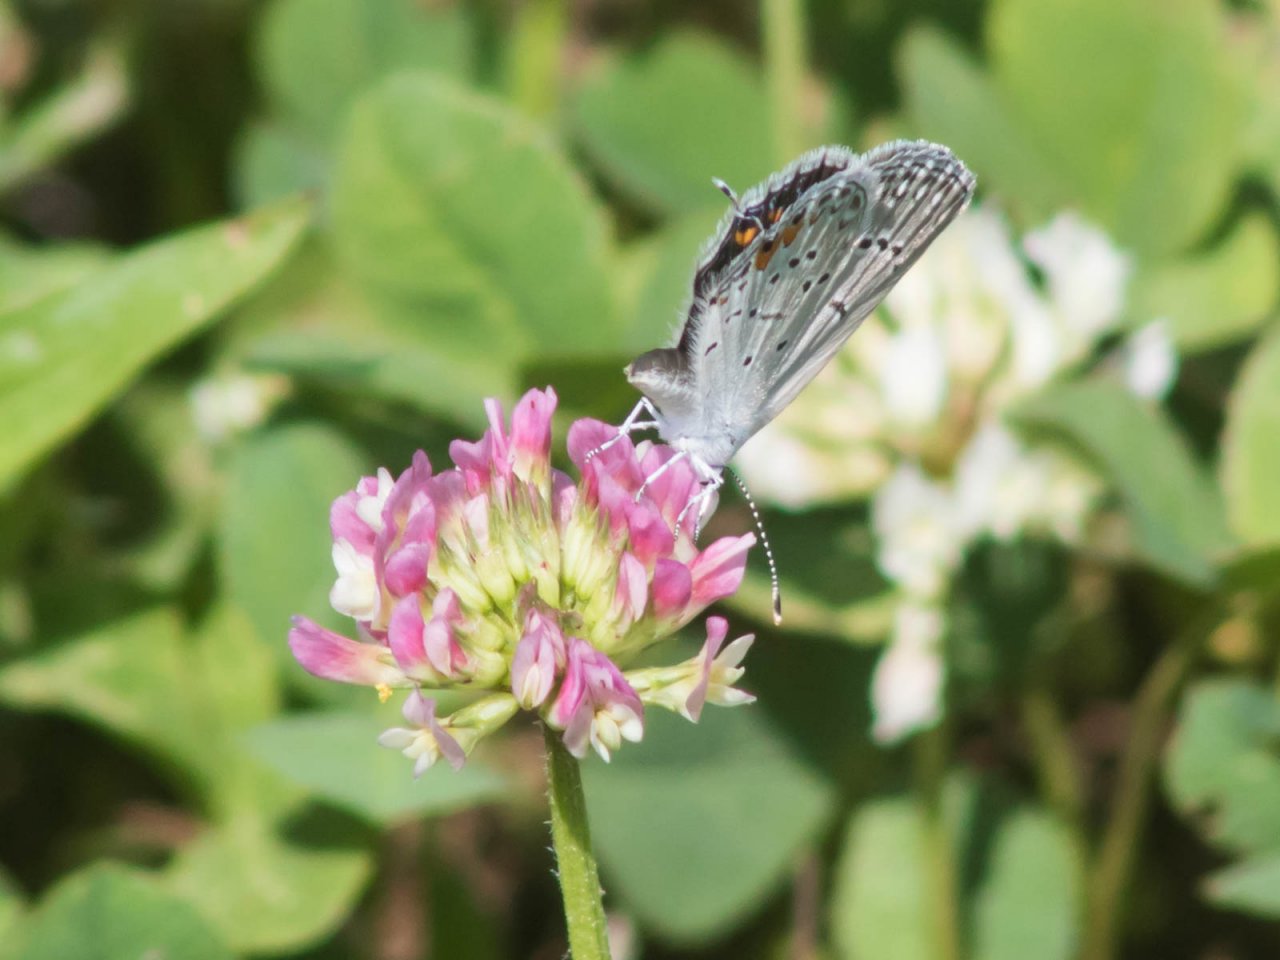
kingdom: Animalia
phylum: Arthropoda
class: Insecta
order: Lepidoptera
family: Lycaenidae
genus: Elkalyce
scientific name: Elkalyce comyntas
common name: Eastern Tailed-Blue
